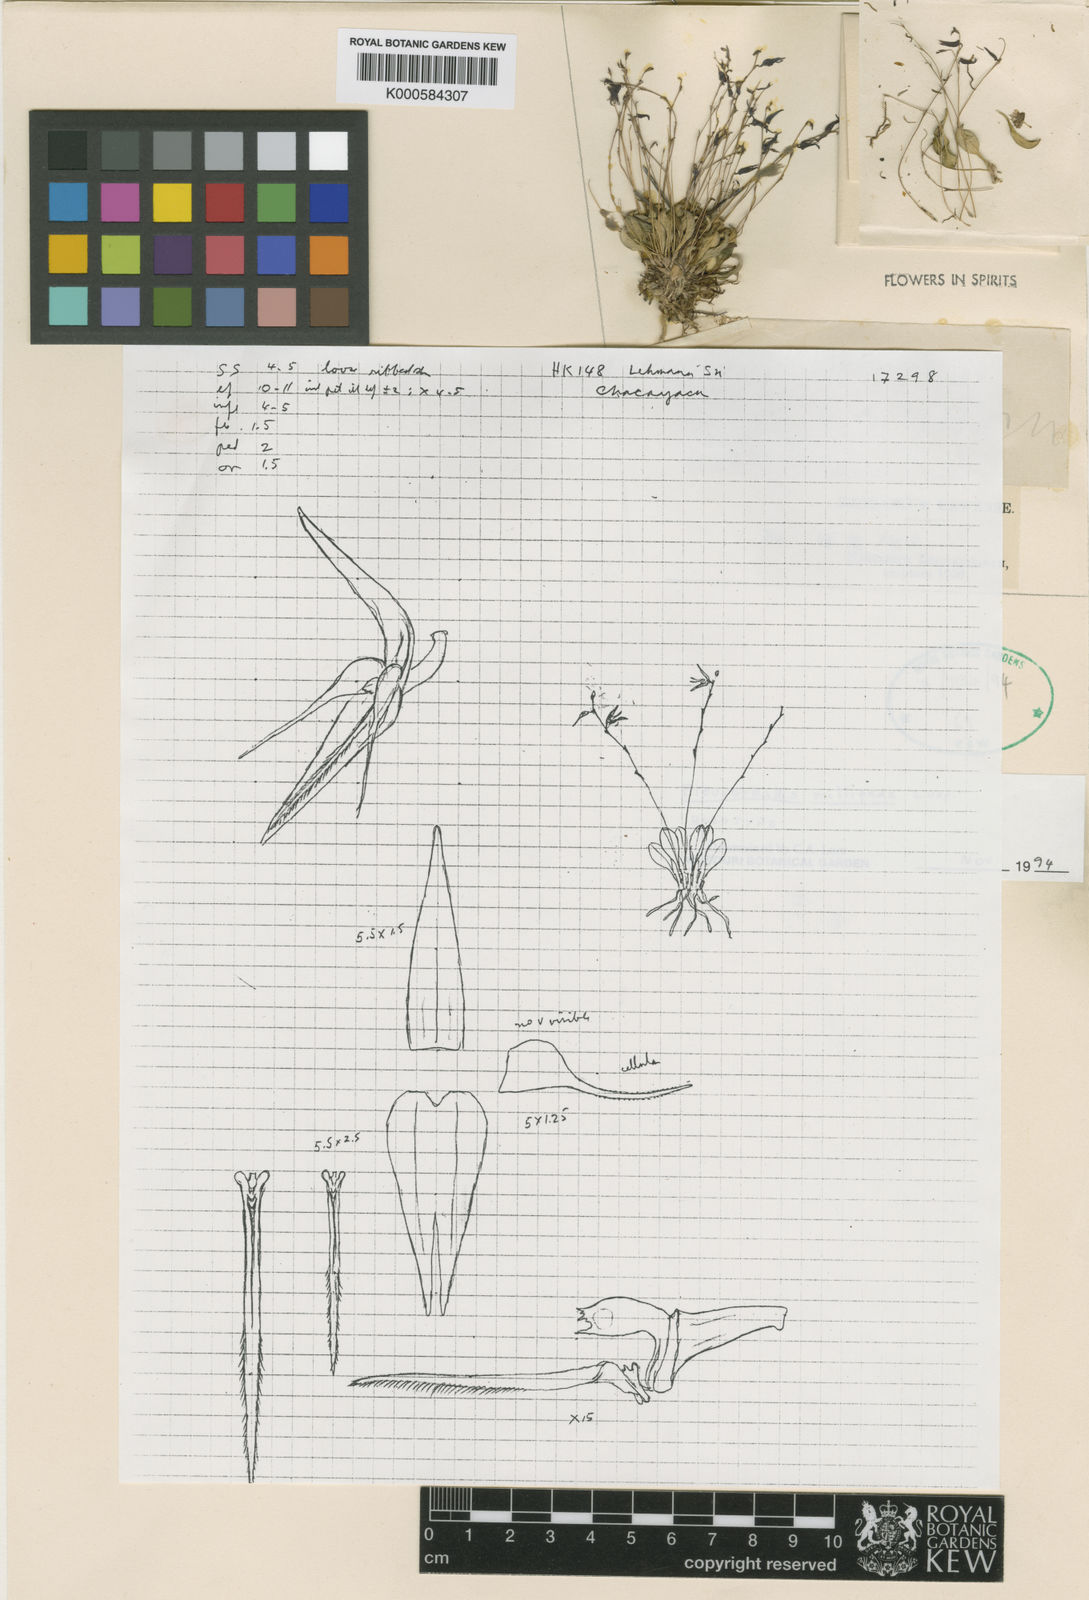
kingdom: Plantae
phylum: Tracheophyta
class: Liliopsida
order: Asparagales
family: Orchidaceae
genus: Anathallis
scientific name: Anathallis millipeda
